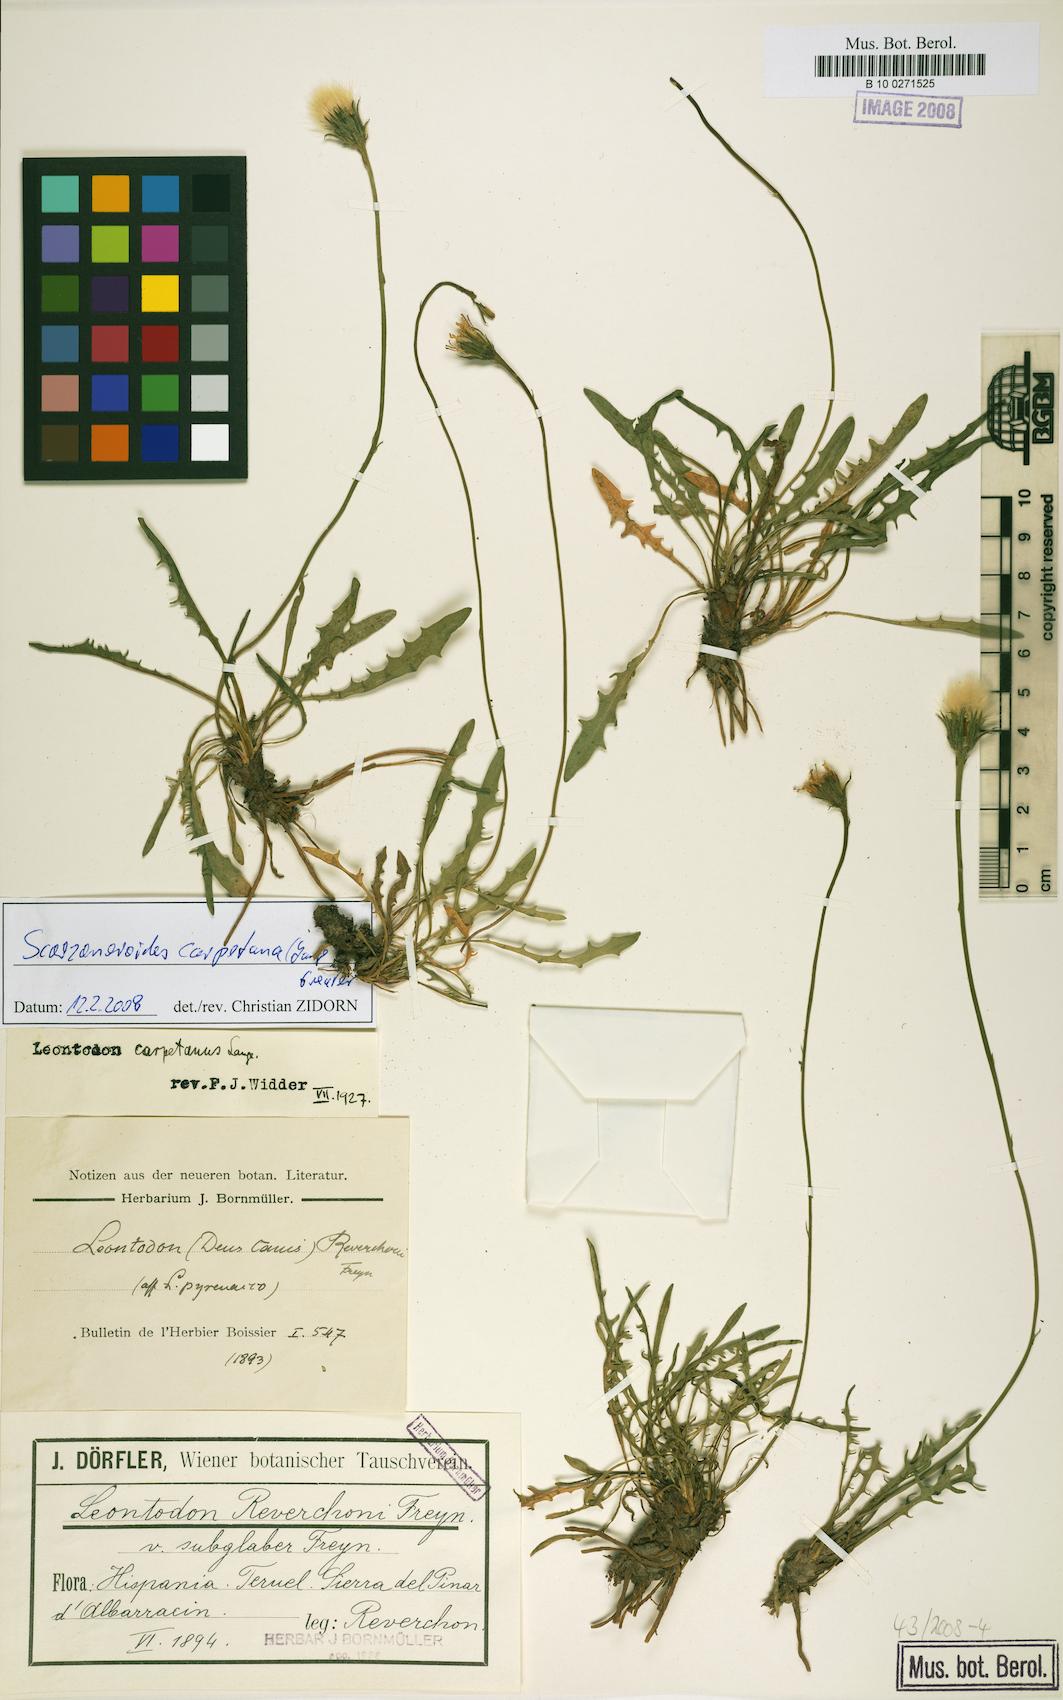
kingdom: Plantae
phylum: Tracheophyta
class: Magnoliopsida
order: Asterales
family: Asteraceae
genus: Scorzoneroides
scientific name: Scorzoneroides carpetana
